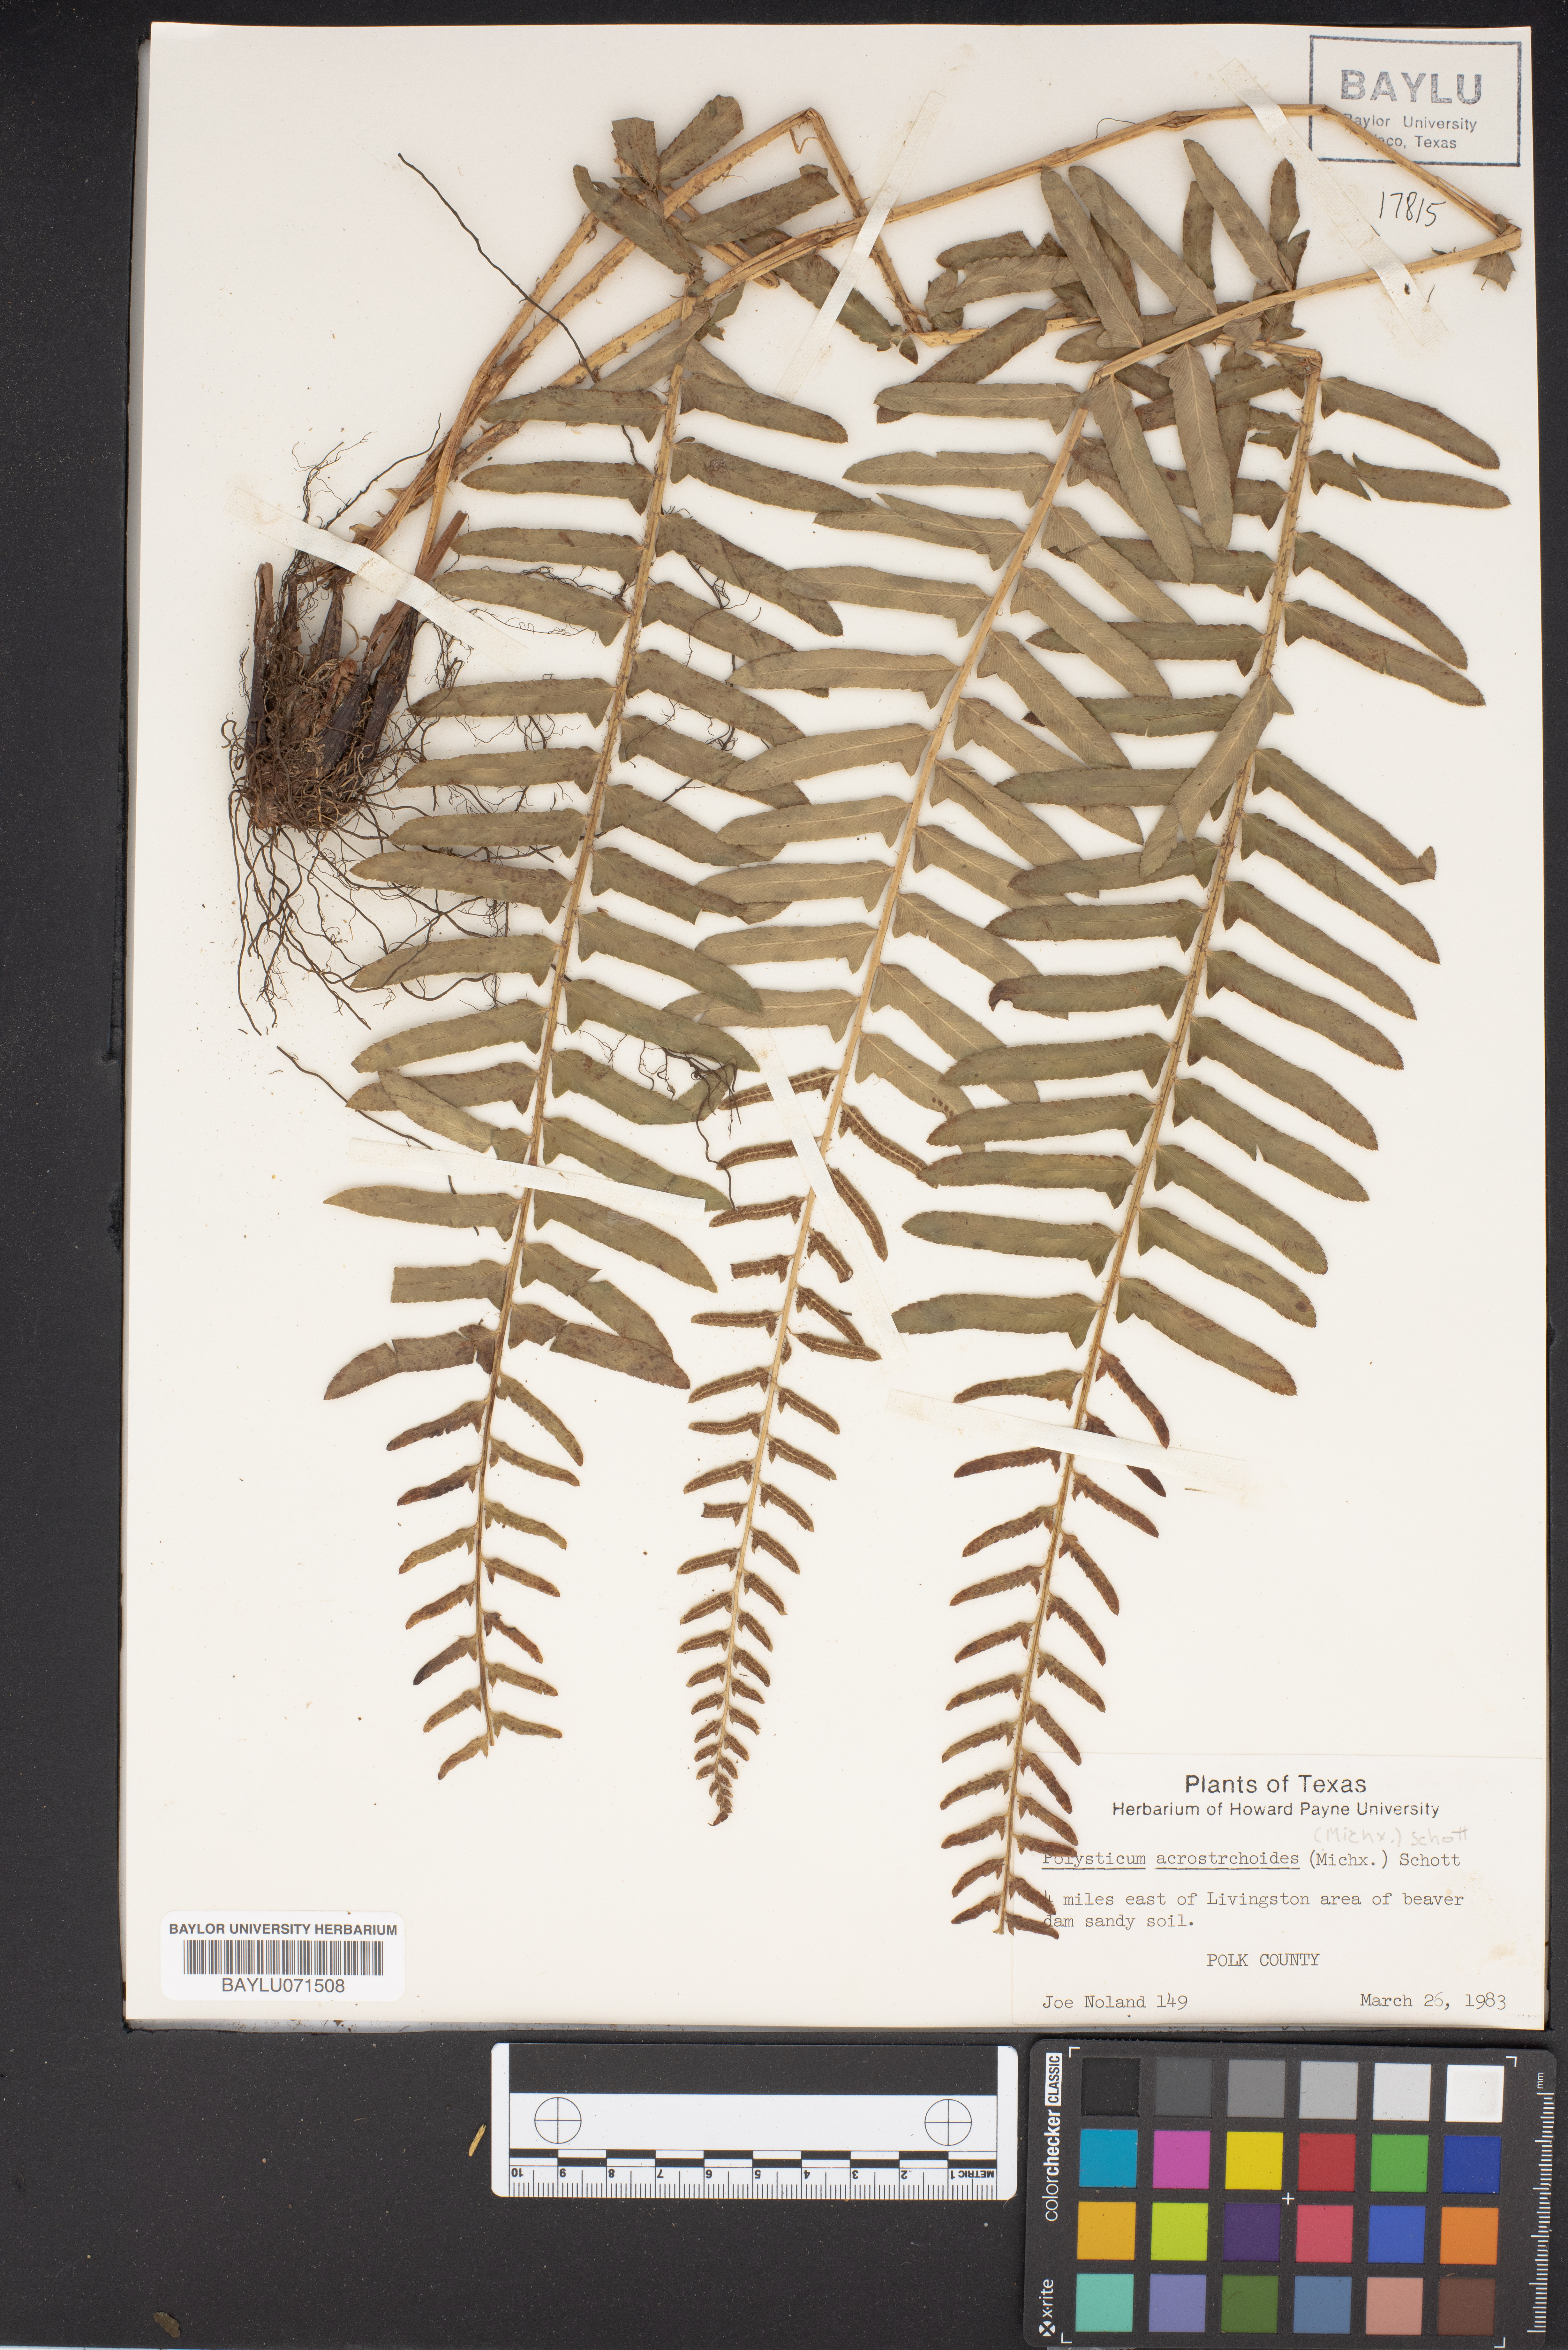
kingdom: Plantae
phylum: Tracheophyta
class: Polypodiopsida
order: Polypodiales
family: Dryopteridaceae
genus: Polystichum
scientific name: Polystichum acrostichoides
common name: Christmas fern
